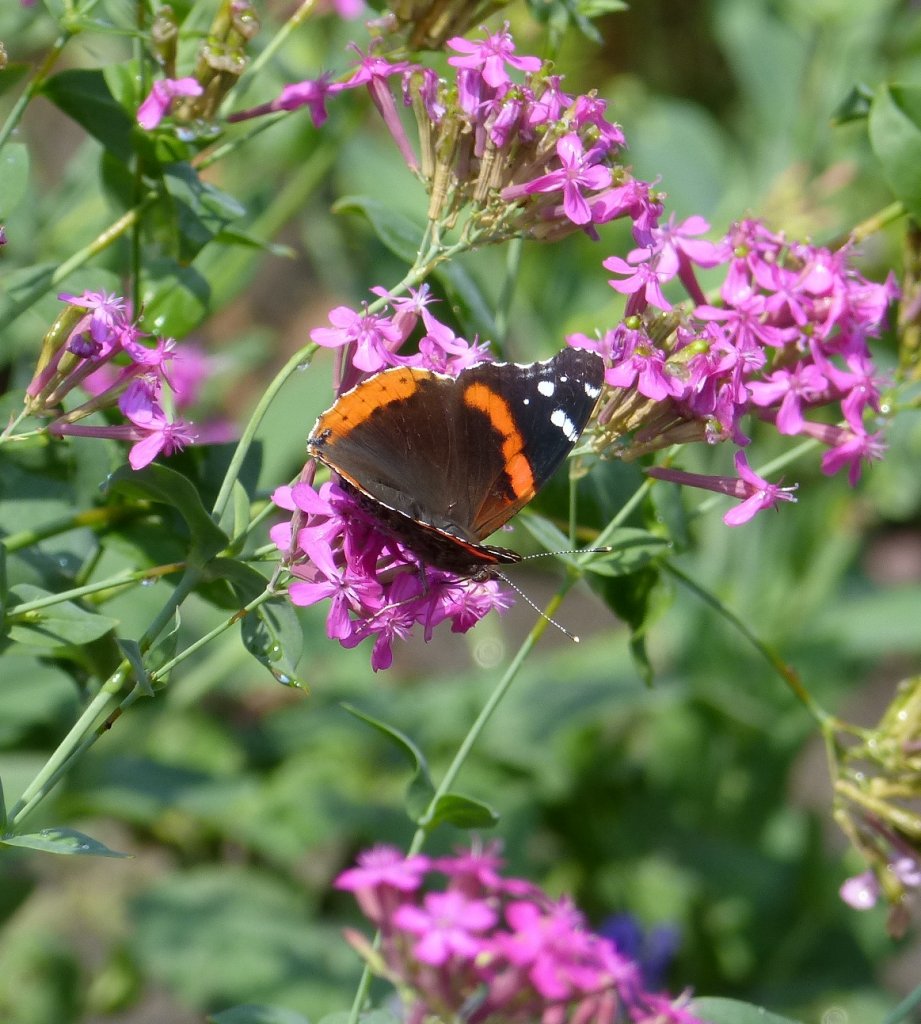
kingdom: Animalia
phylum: Arthropoda
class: Insecta
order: Lepidoptera
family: Nymphalidae
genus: Vanessa
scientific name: Vanessa atalanta
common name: Red Admiral
